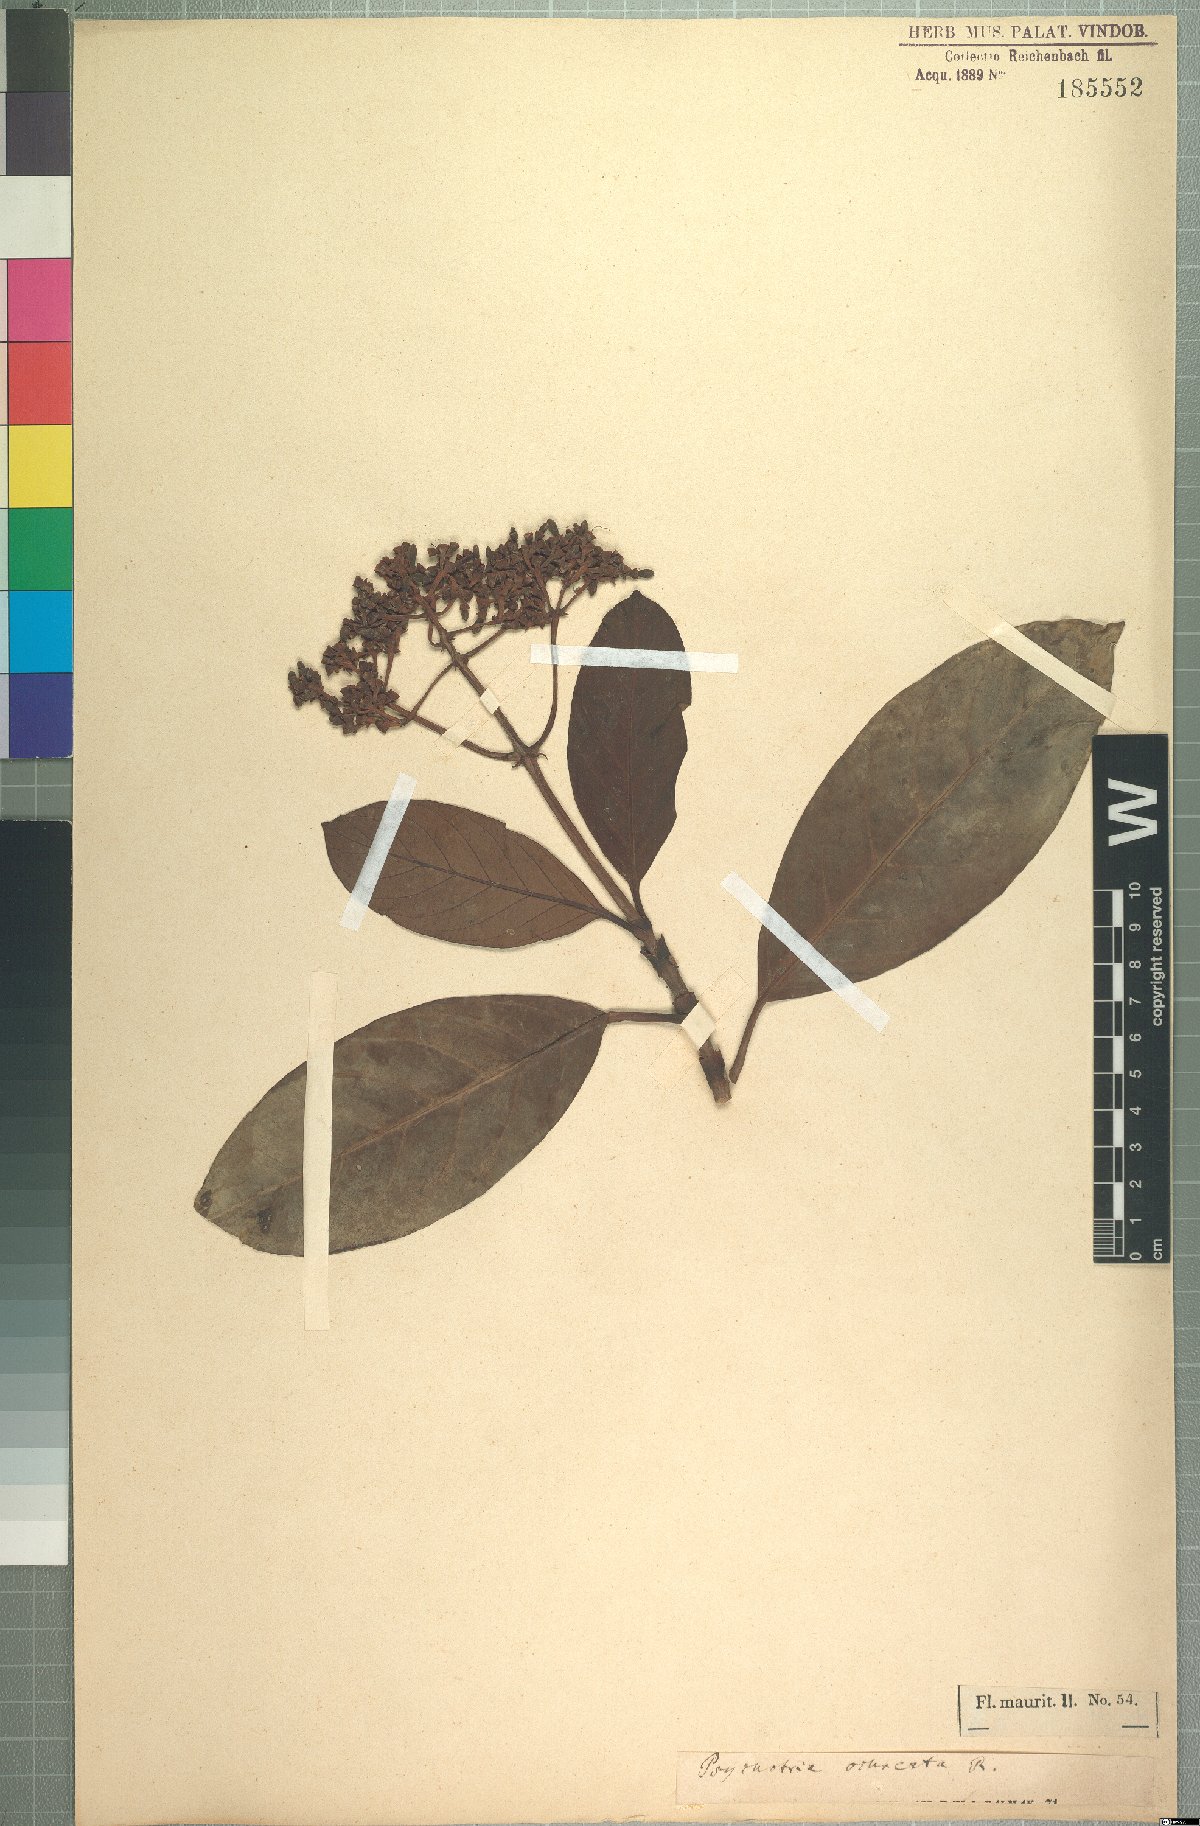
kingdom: Plantae
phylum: Tracheophyta
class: Magnoliopsida
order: Gentianales
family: Rubiaceae
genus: Gaertnera
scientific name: Gaertnera psychotrioides
